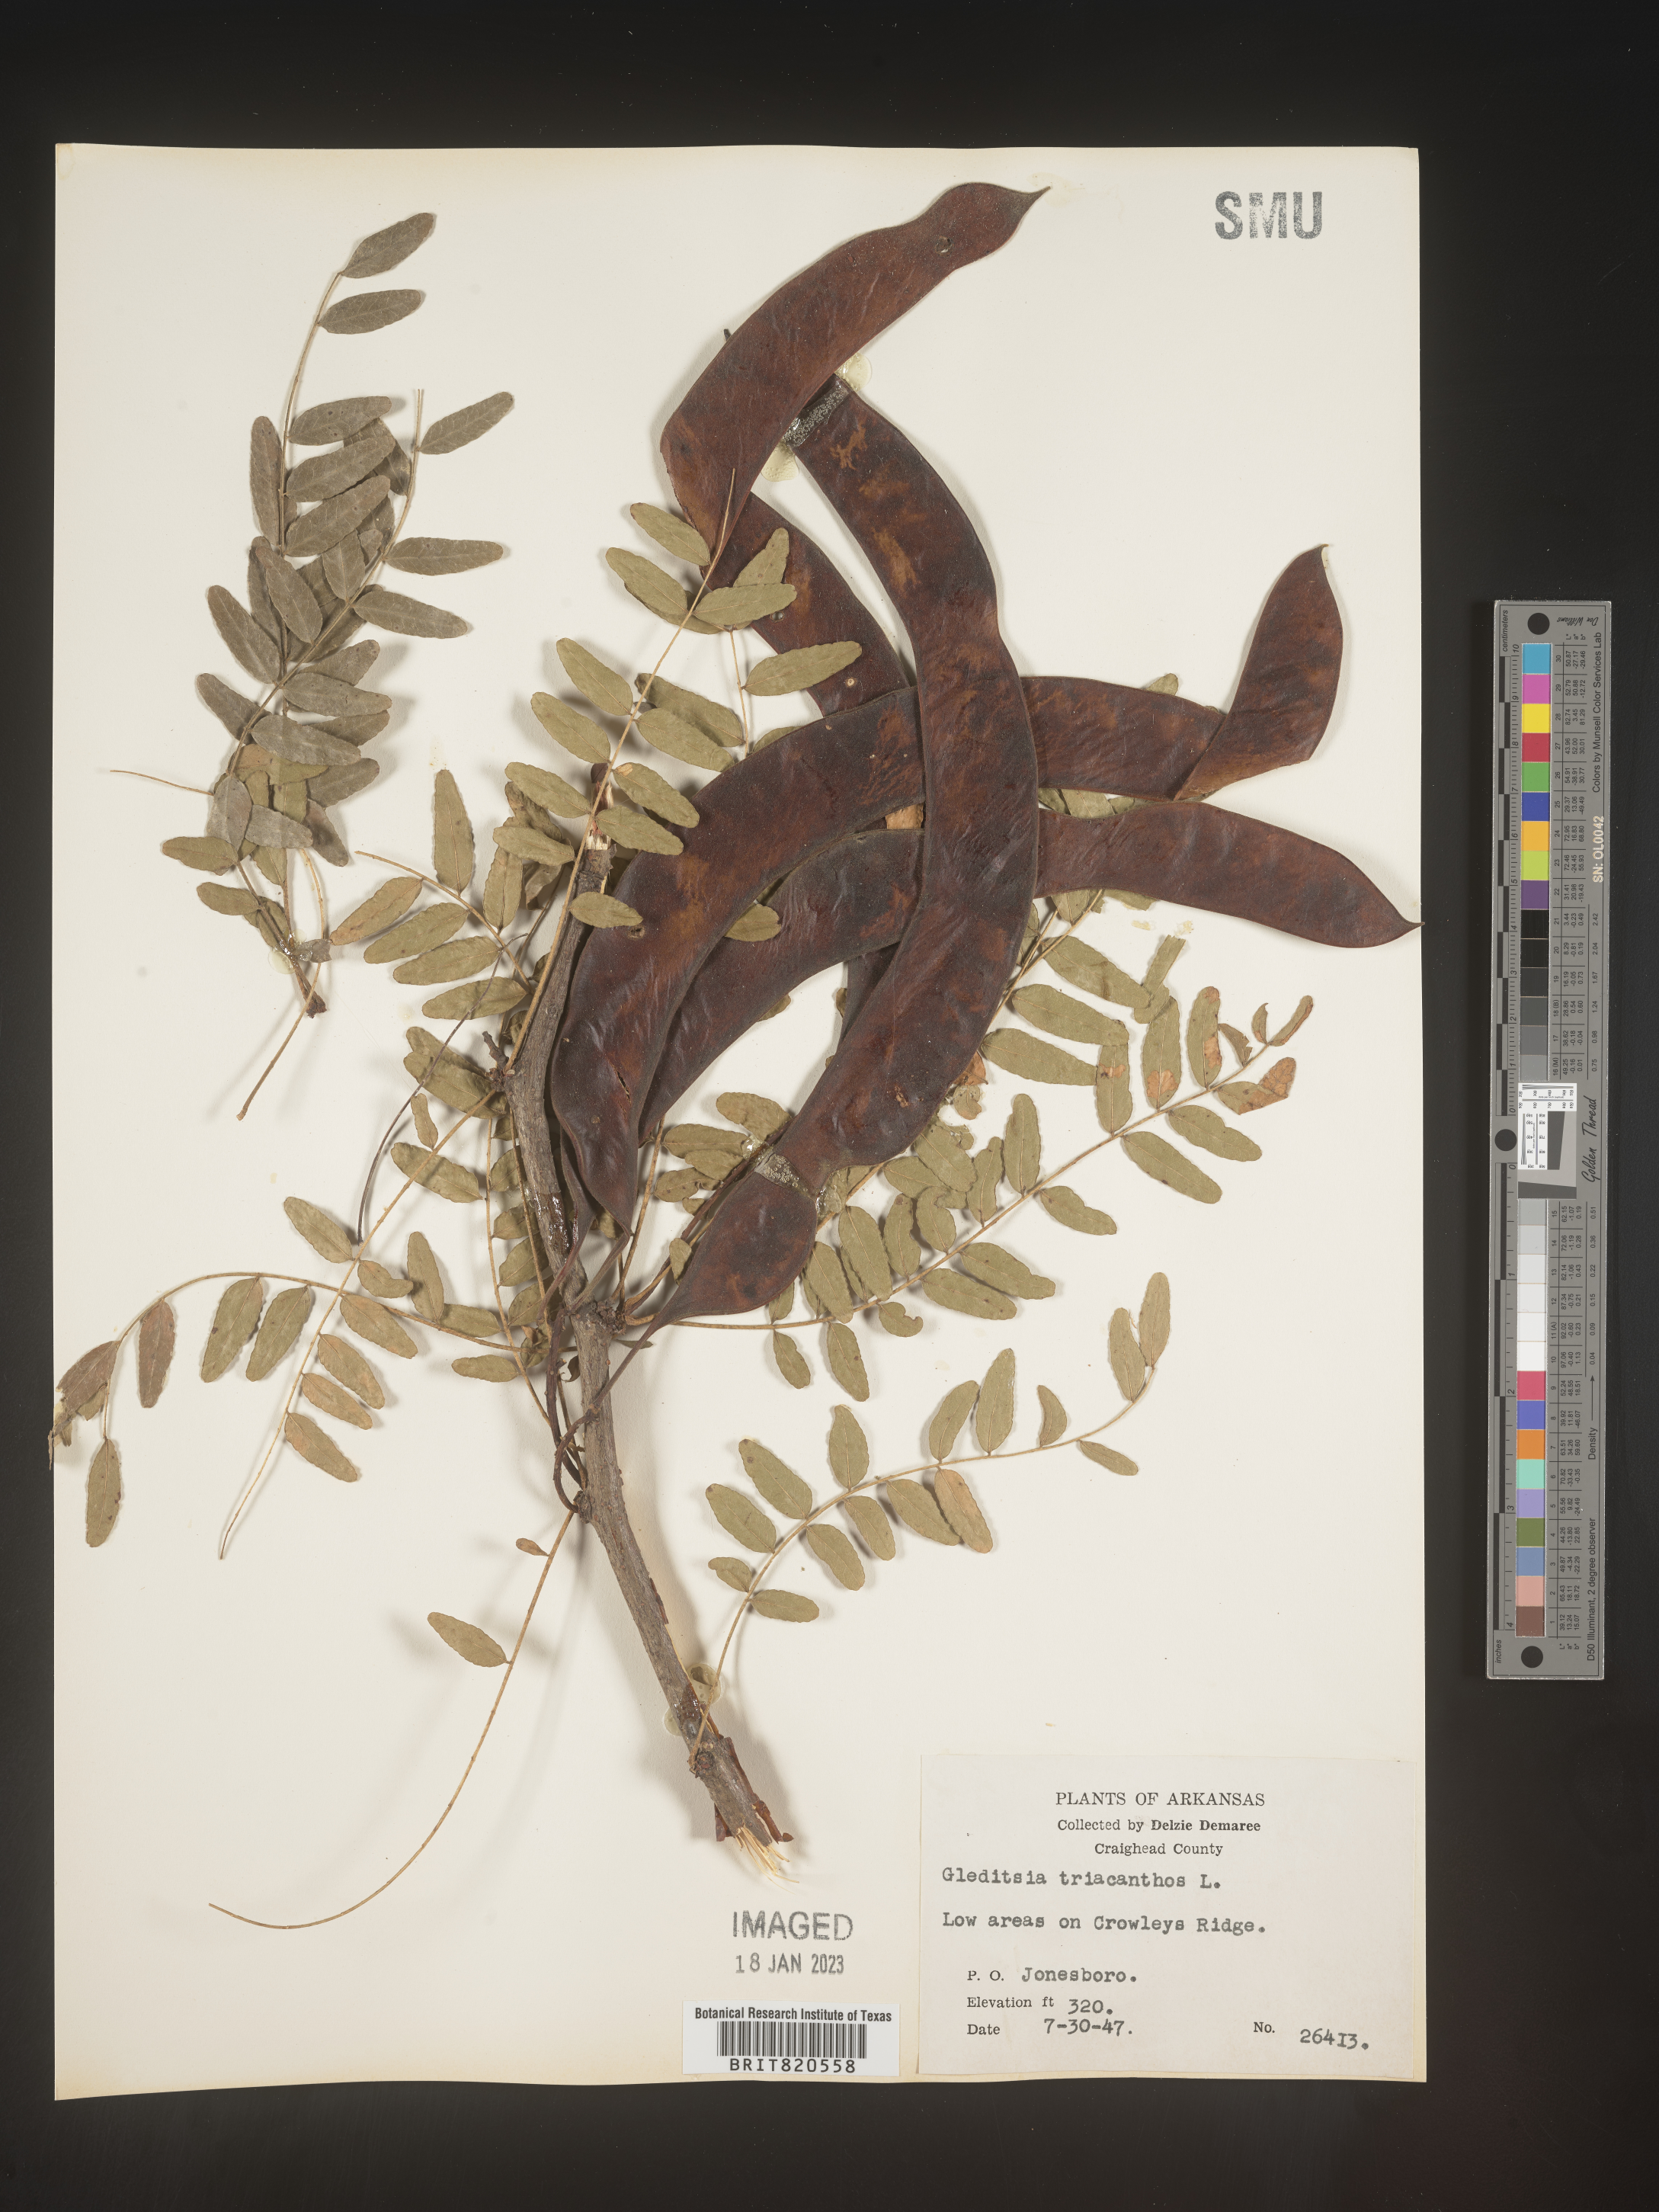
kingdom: Plantae
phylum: Tracheophyta
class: Magnoliopsida
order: Fabales
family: Fabaceae
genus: Gleditsia
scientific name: Gleditsia triacanthos
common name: Common honeylocust
